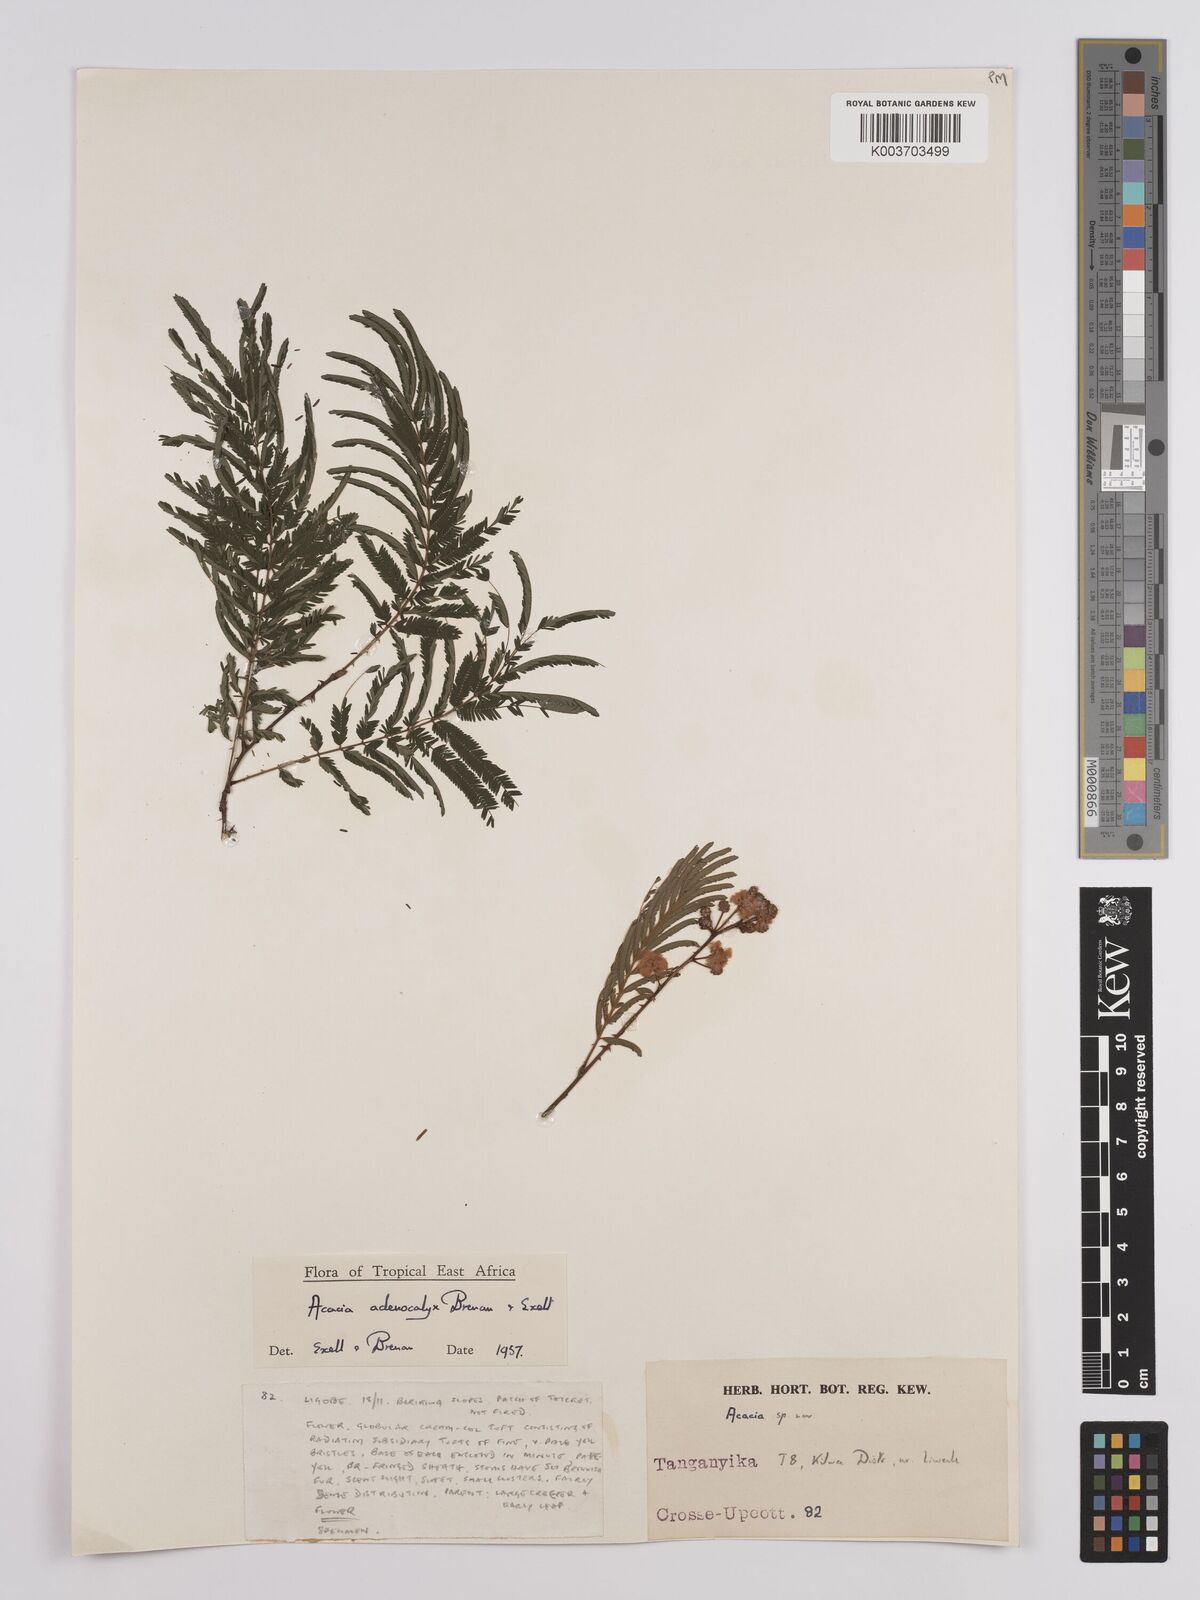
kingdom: Plantae
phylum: Tracheophyta
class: Magnoliopsida
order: Fabales
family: Fabaceae
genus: Senegalia
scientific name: Senegalia adenocalyx
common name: Pfurura
